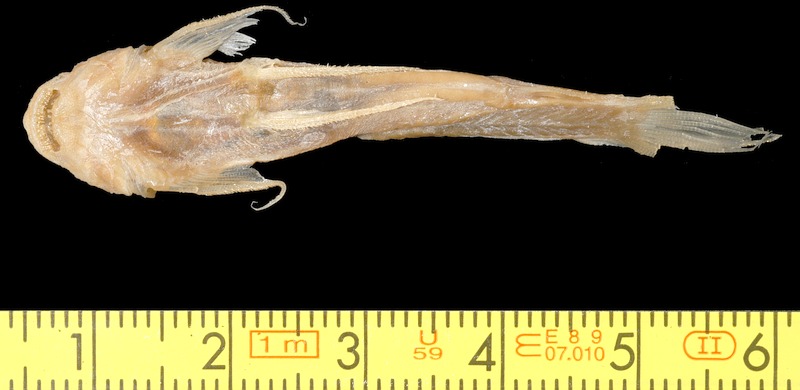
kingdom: Animalia
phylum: Chordata
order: Siluriformes
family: Astroblepidae
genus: Astroblepus
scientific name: Astroblepus theresiae
